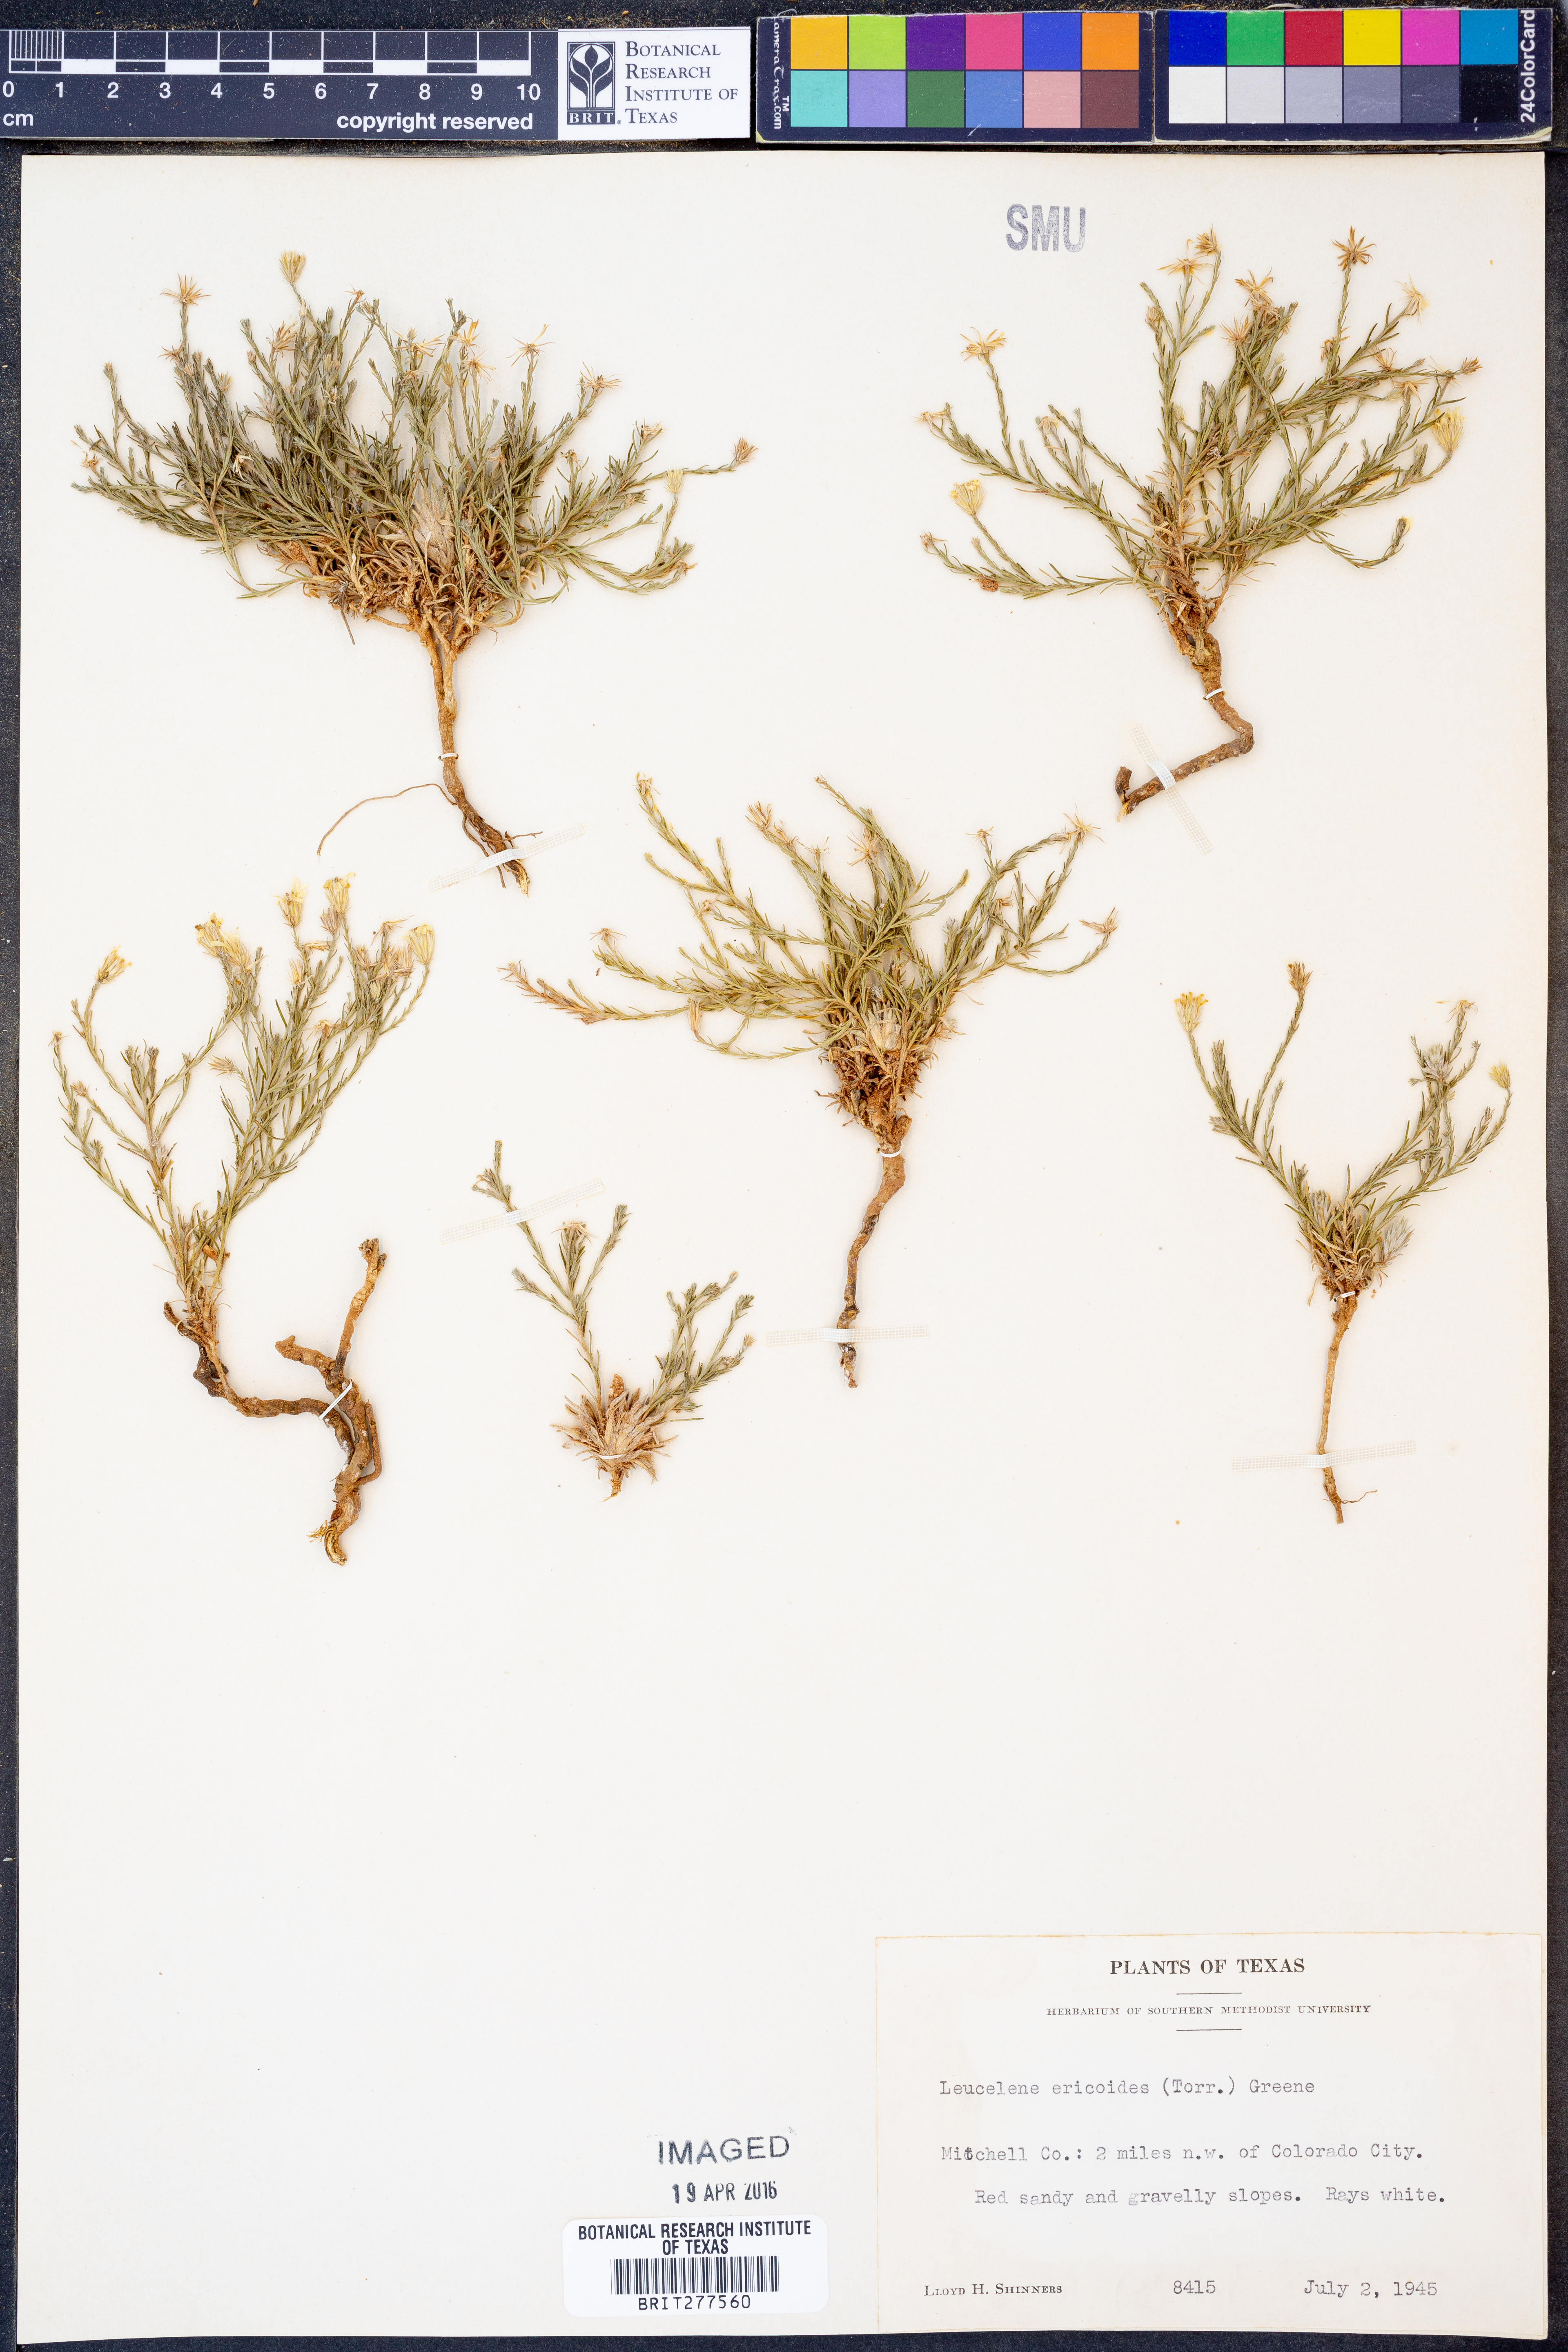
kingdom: Plantae
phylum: Tracheophyta
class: Magnoliopsida
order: Asterales
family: Asteraceae
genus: Chaetopappa
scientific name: Chaetopappa ericoides
